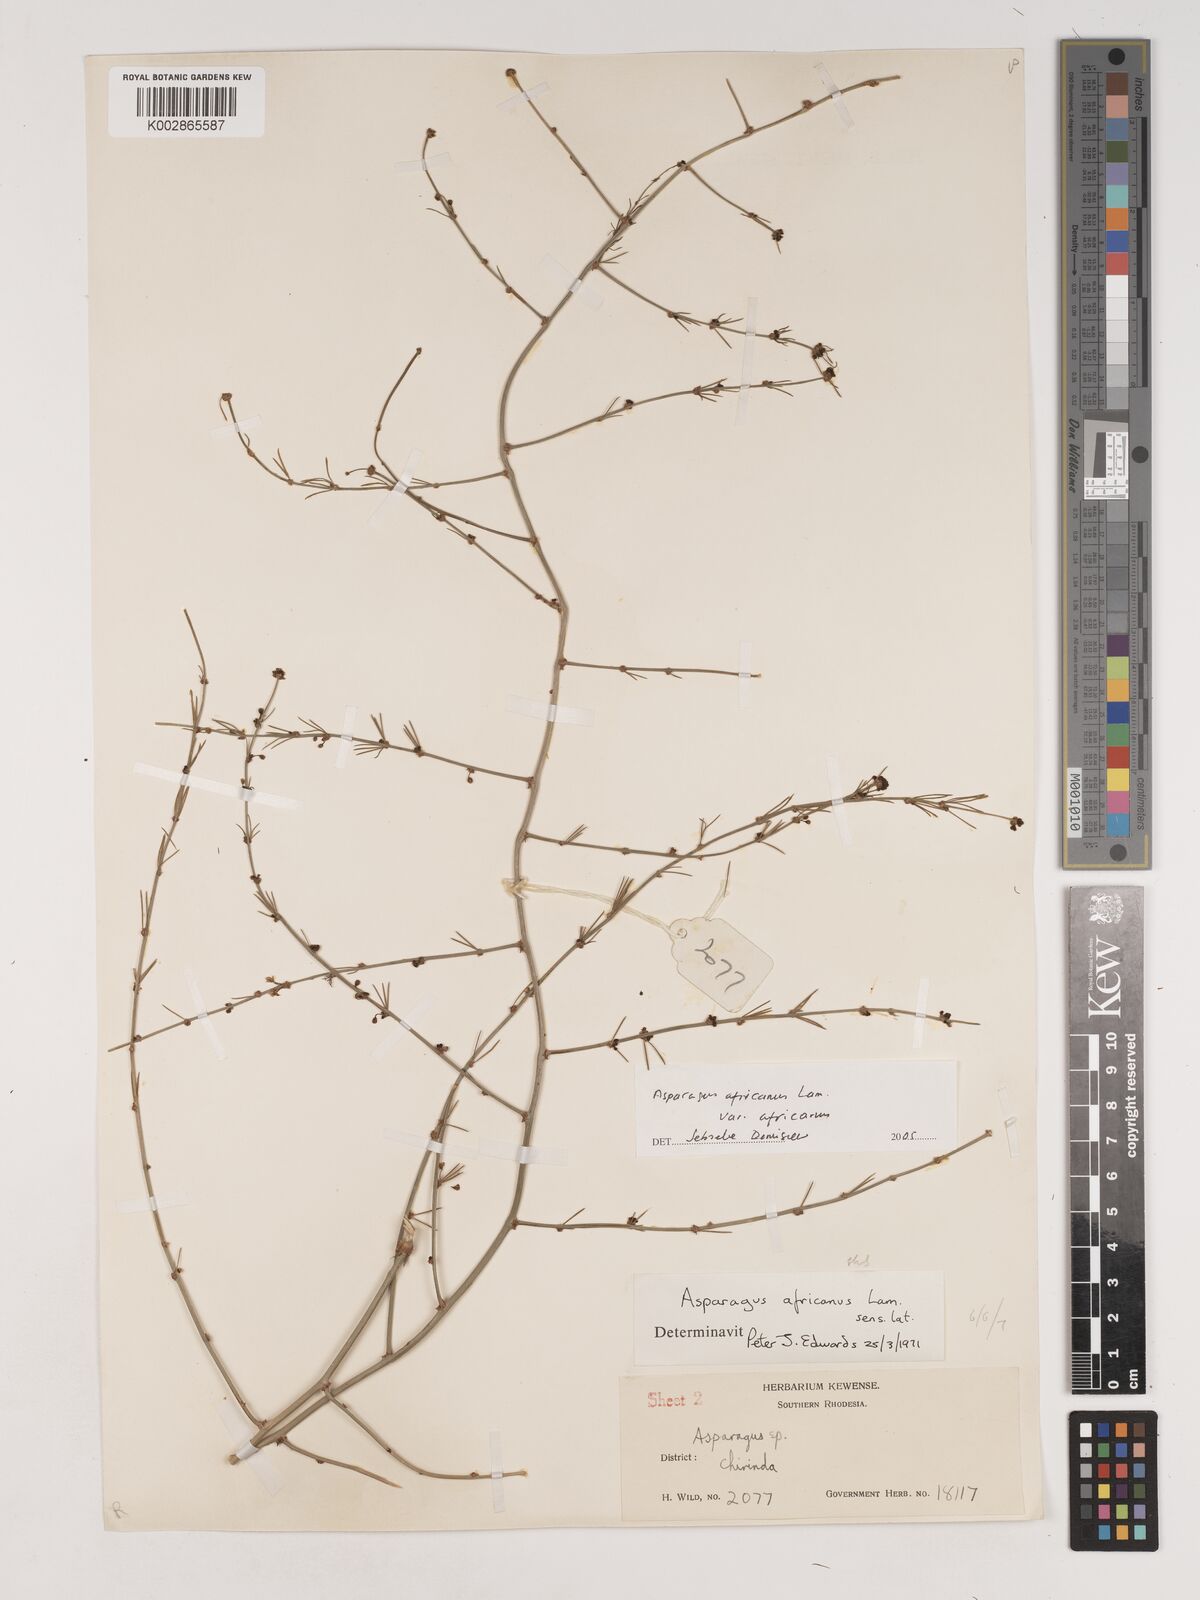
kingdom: Plantae
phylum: Tracheophyta
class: Liliopsida
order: Asparagales
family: Asparagaceae
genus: Asparagus
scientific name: Asparagus africanus
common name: Asparagus-fern
